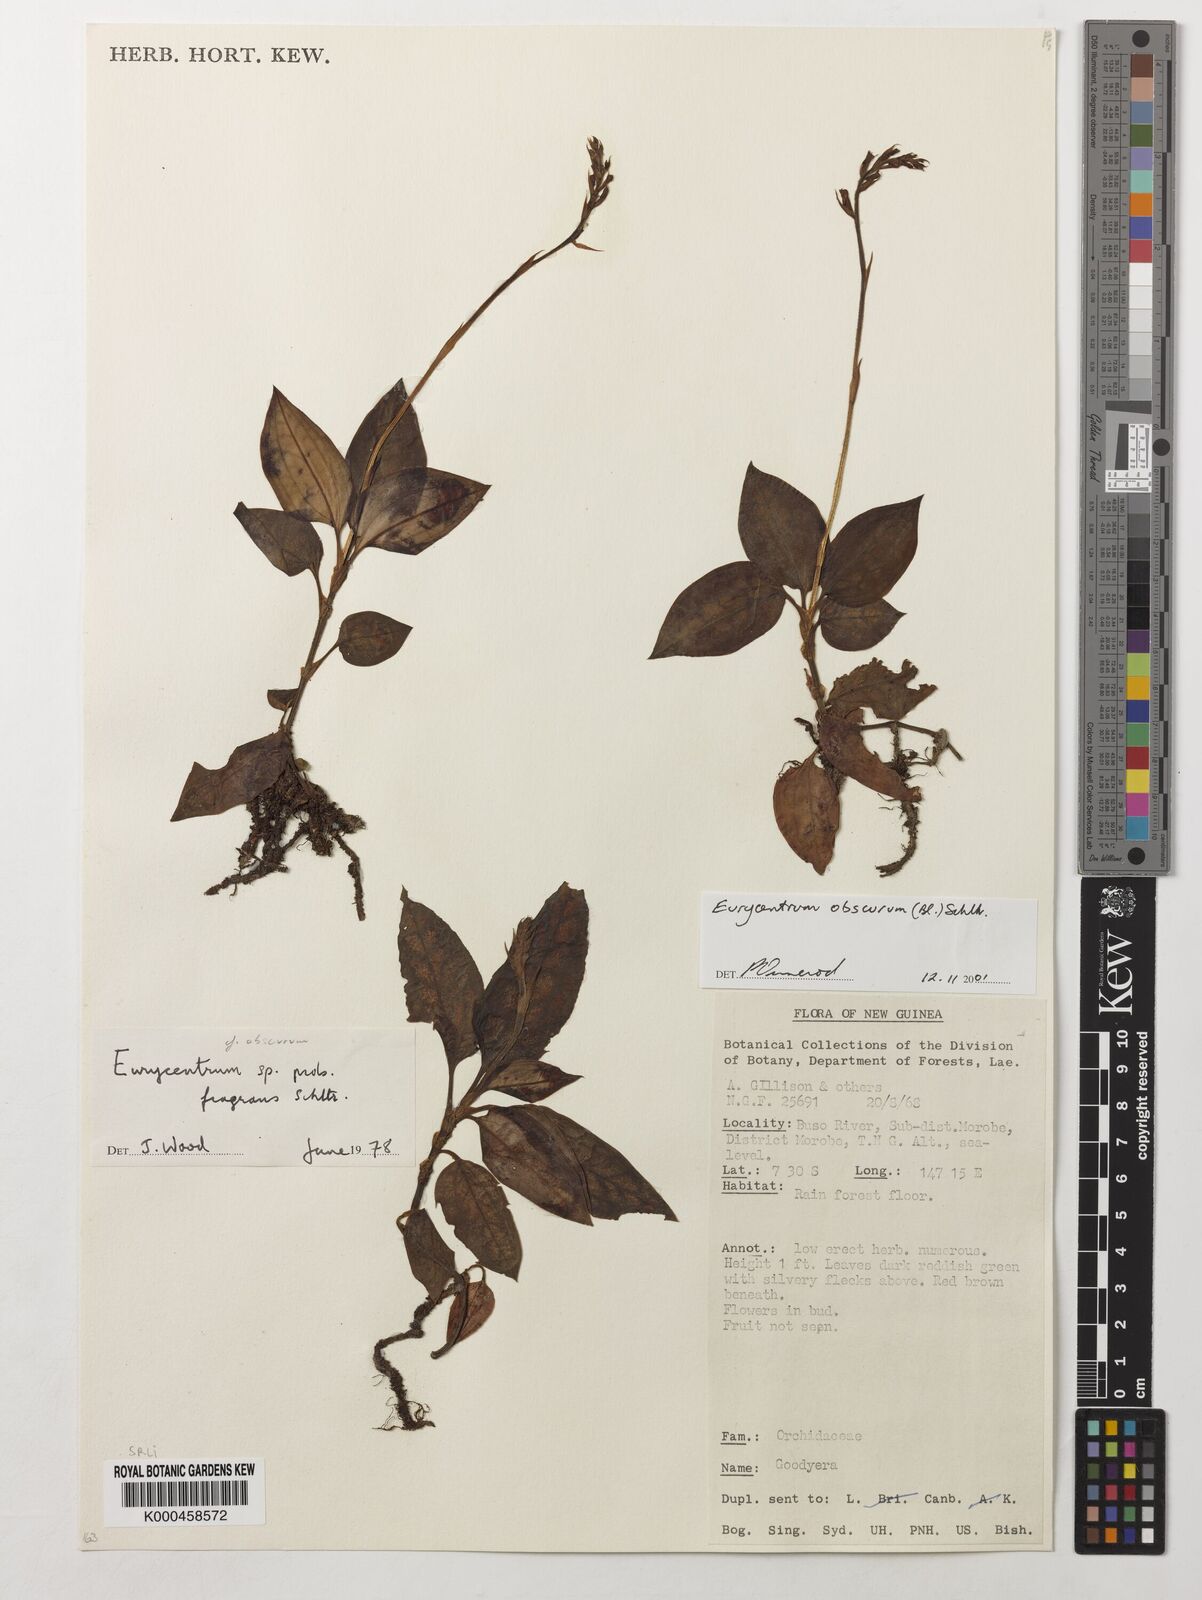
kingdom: Plantae
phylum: Tracheophyta
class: Liliopsida
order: Asparagales
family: Orchidaceae
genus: Eurycentrum
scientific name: Eurycentrum obscurum
